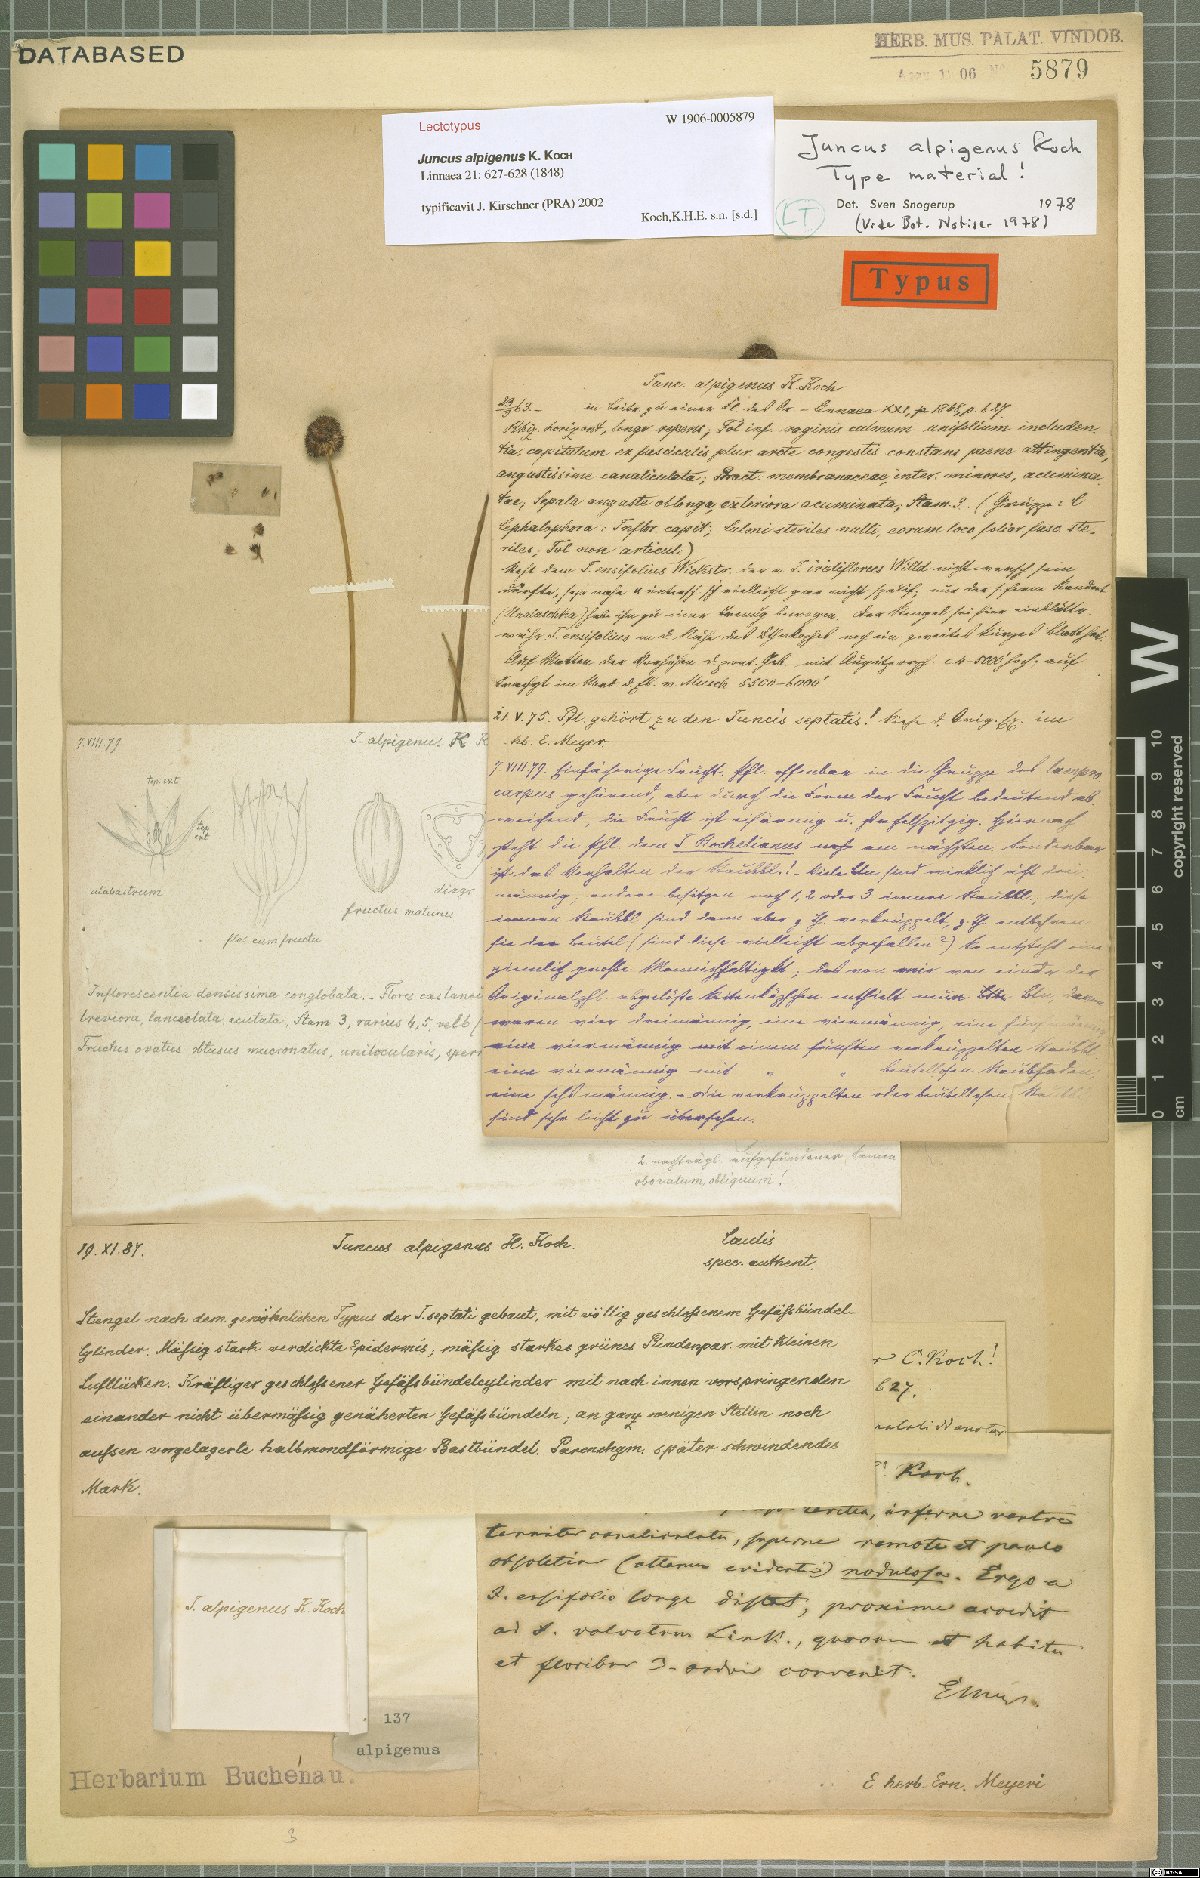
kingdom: Plantae
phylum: Tracheophyta
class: Liliopsida
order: Poales
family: Juncaceae
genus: Juncus
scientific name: Juncus alpigenus
